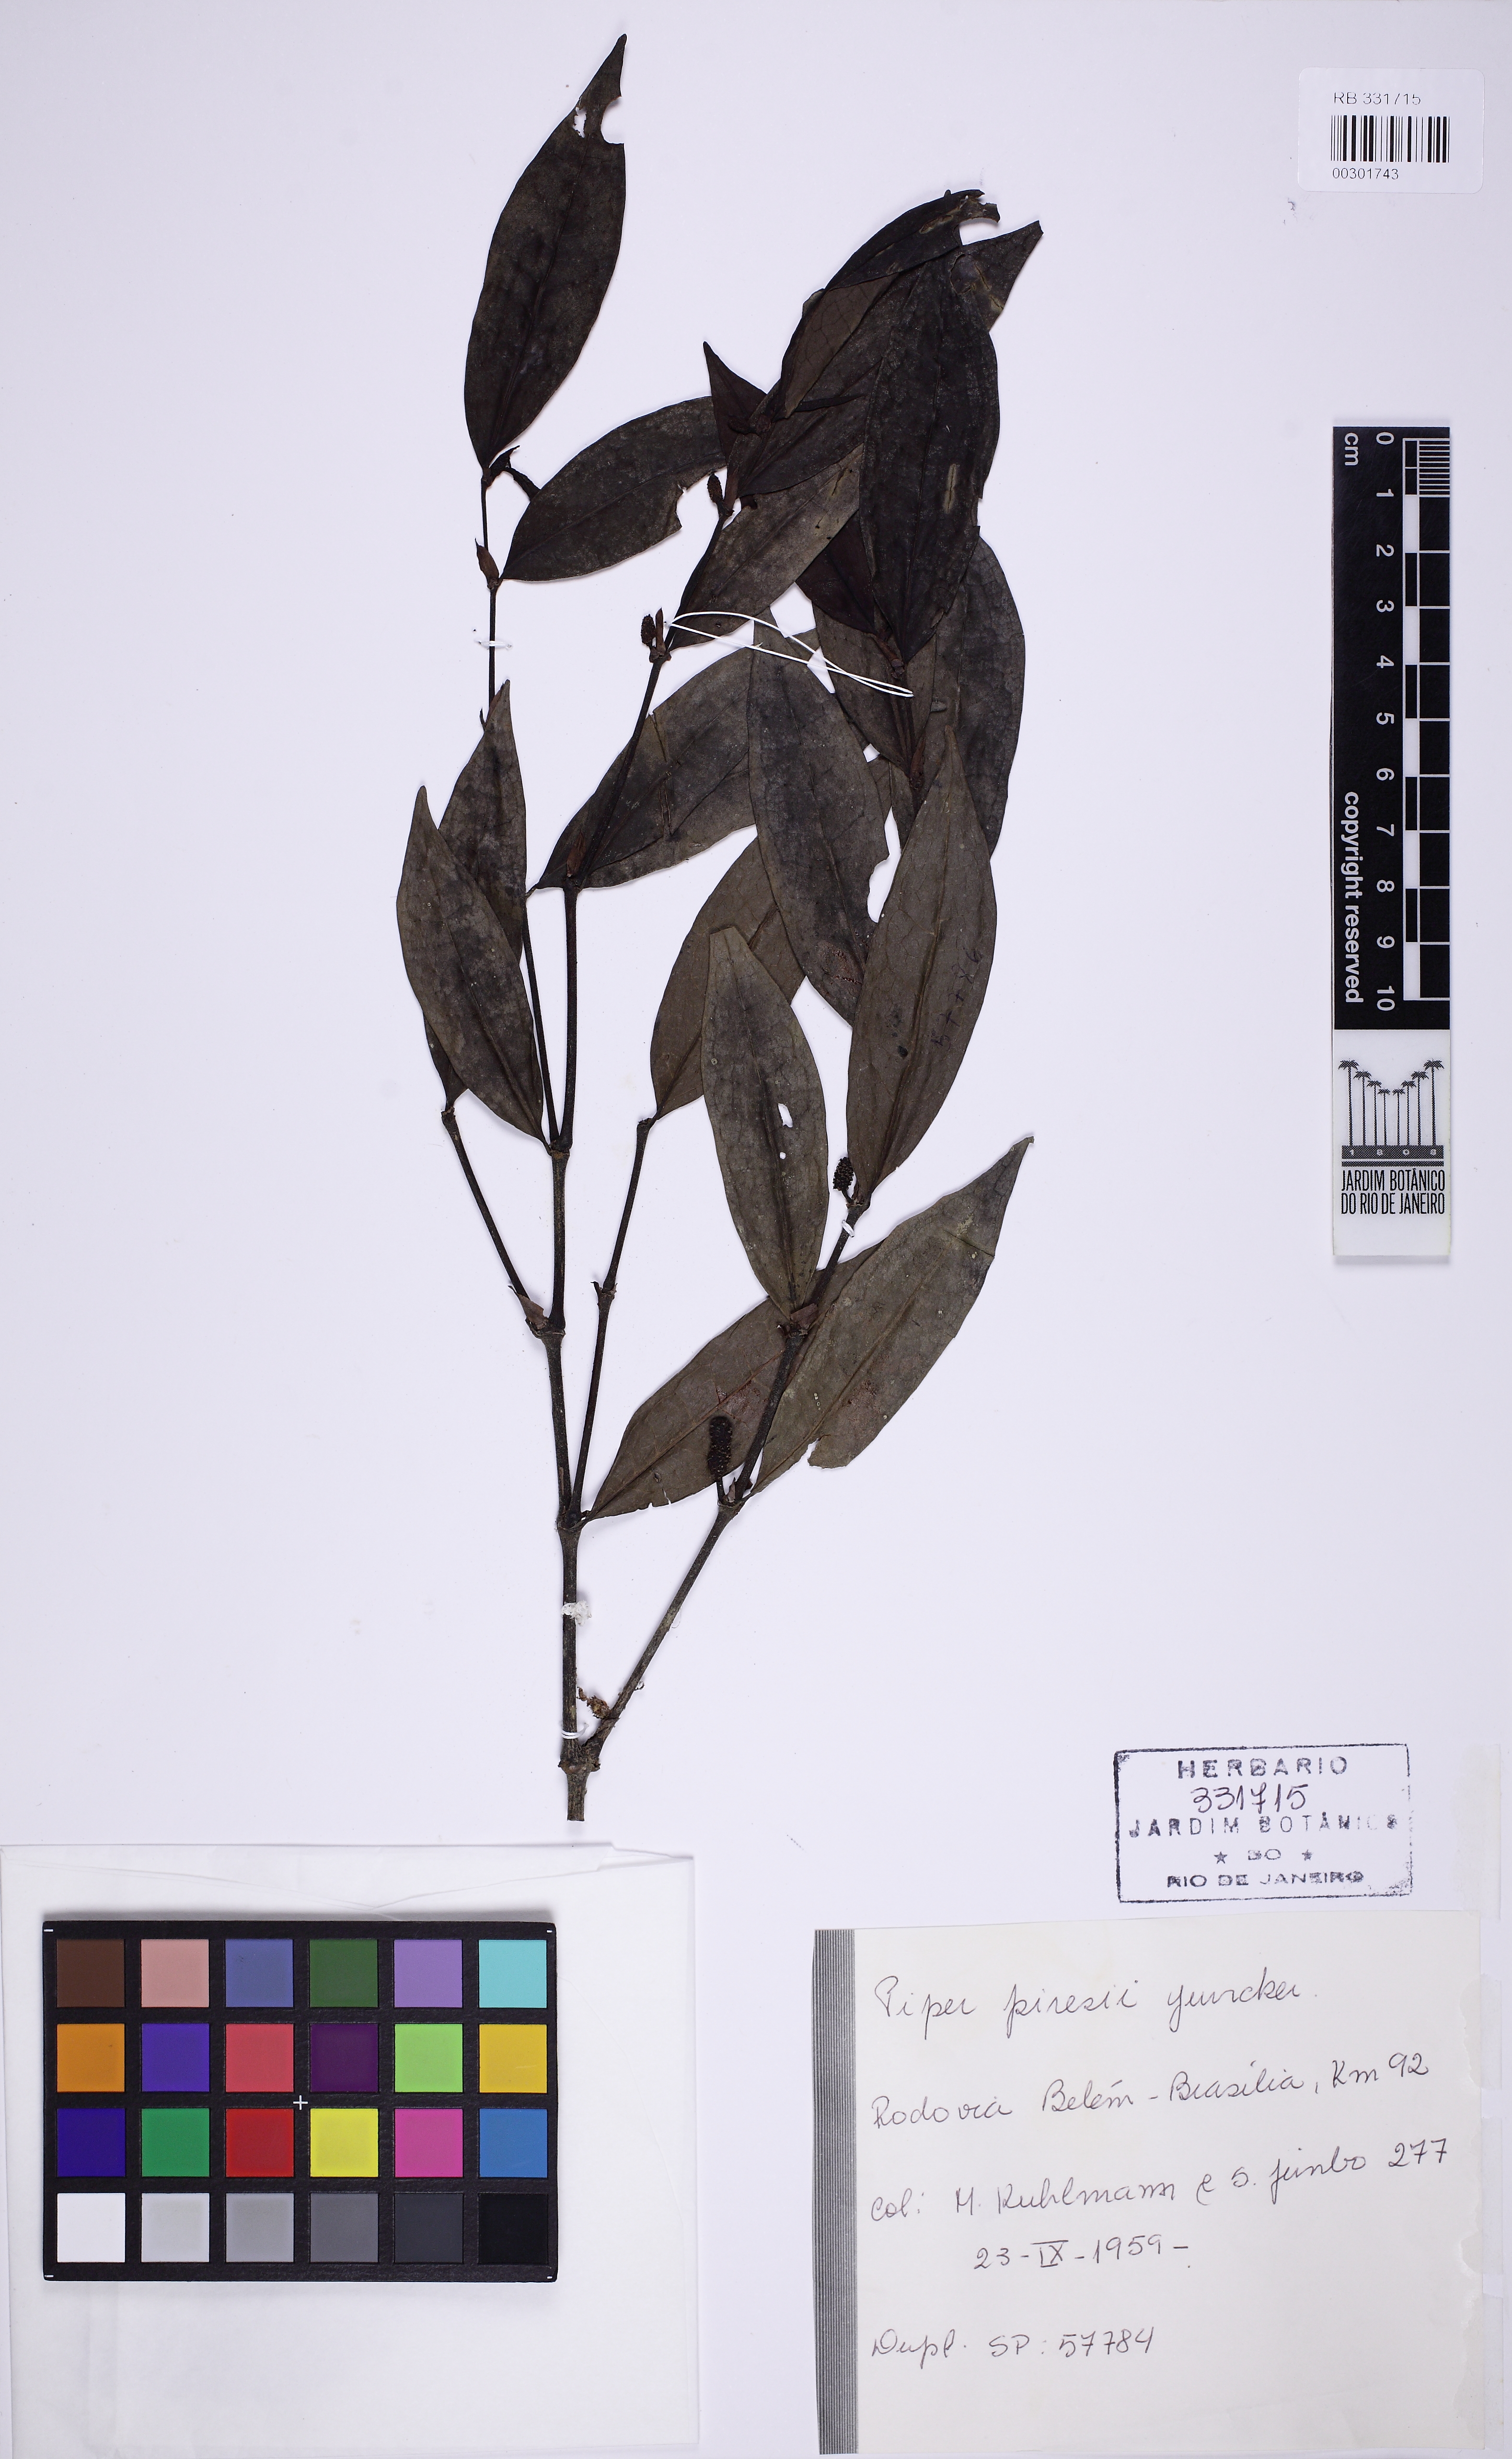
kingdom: Plantae
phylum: Tracheophyta
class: Magnoliopsida
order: Piperales
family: Piperaceae
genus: Piper
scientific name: Piper piresii
